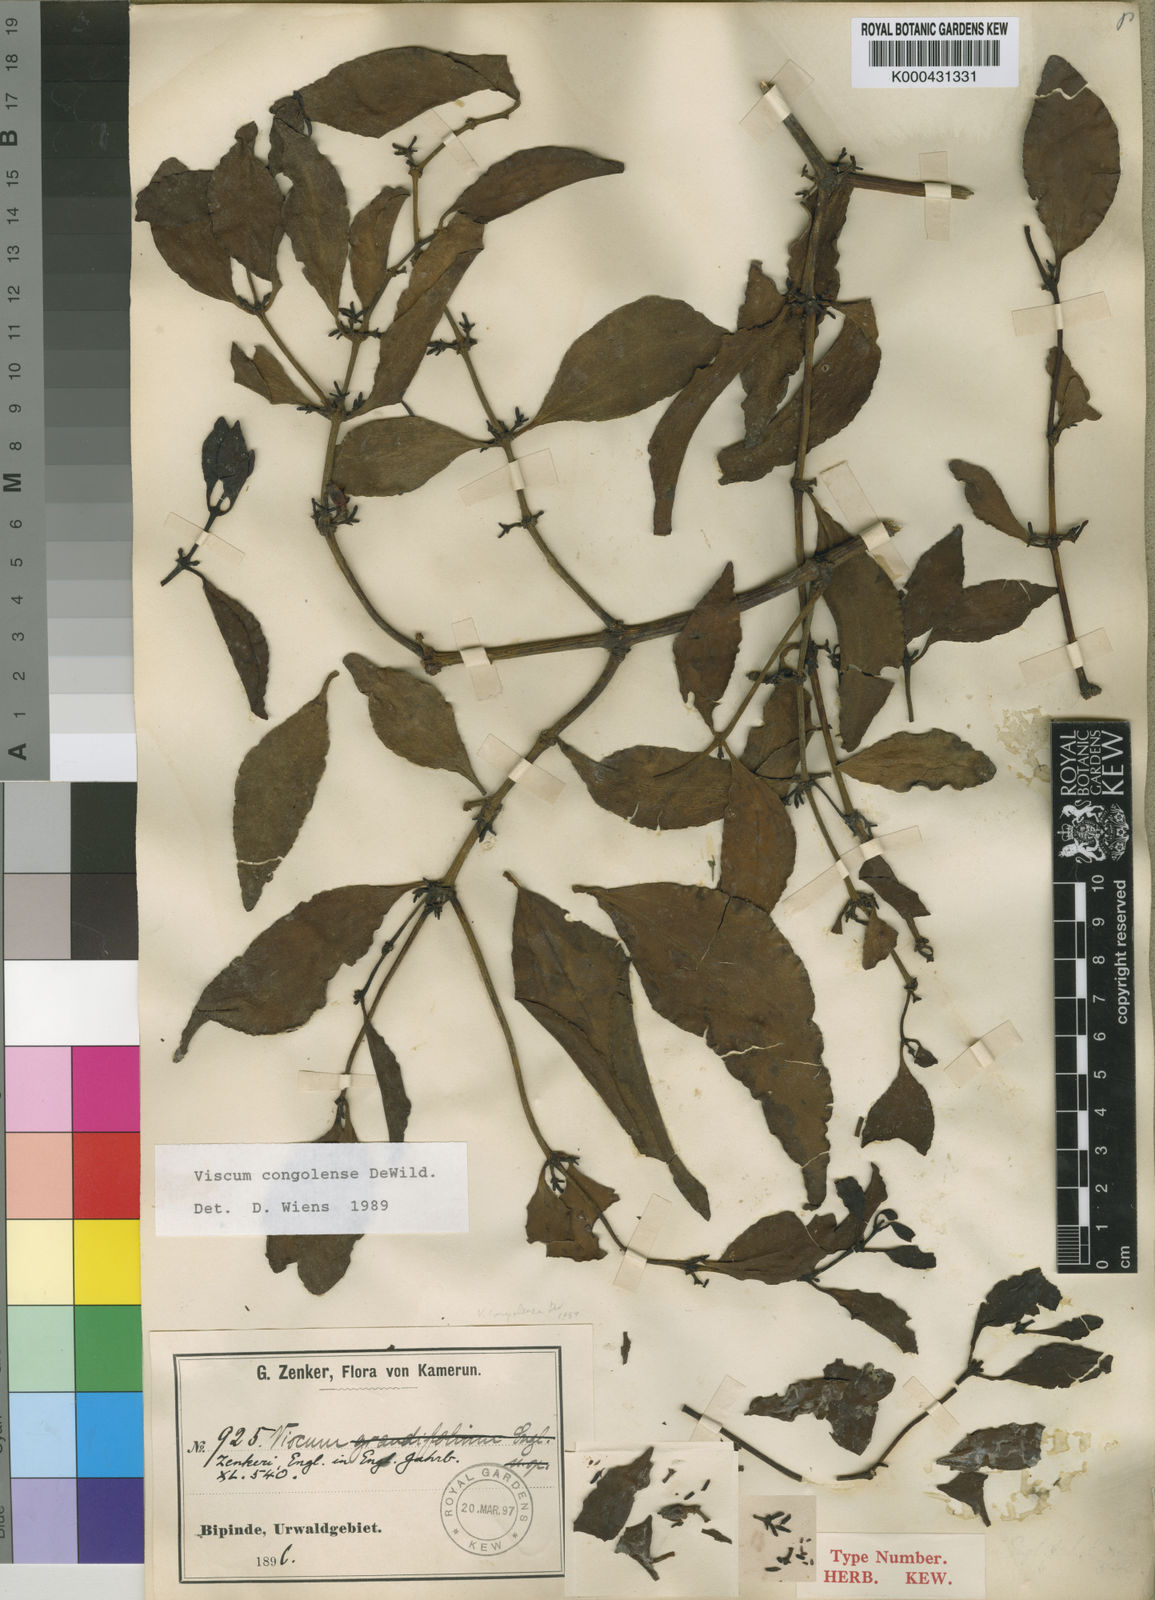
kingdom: Plantae
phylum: Tracheophyta
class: Magnoliopsida
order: Santalales
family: Viscaceae
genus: Viscum
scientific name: Viscum congolense
